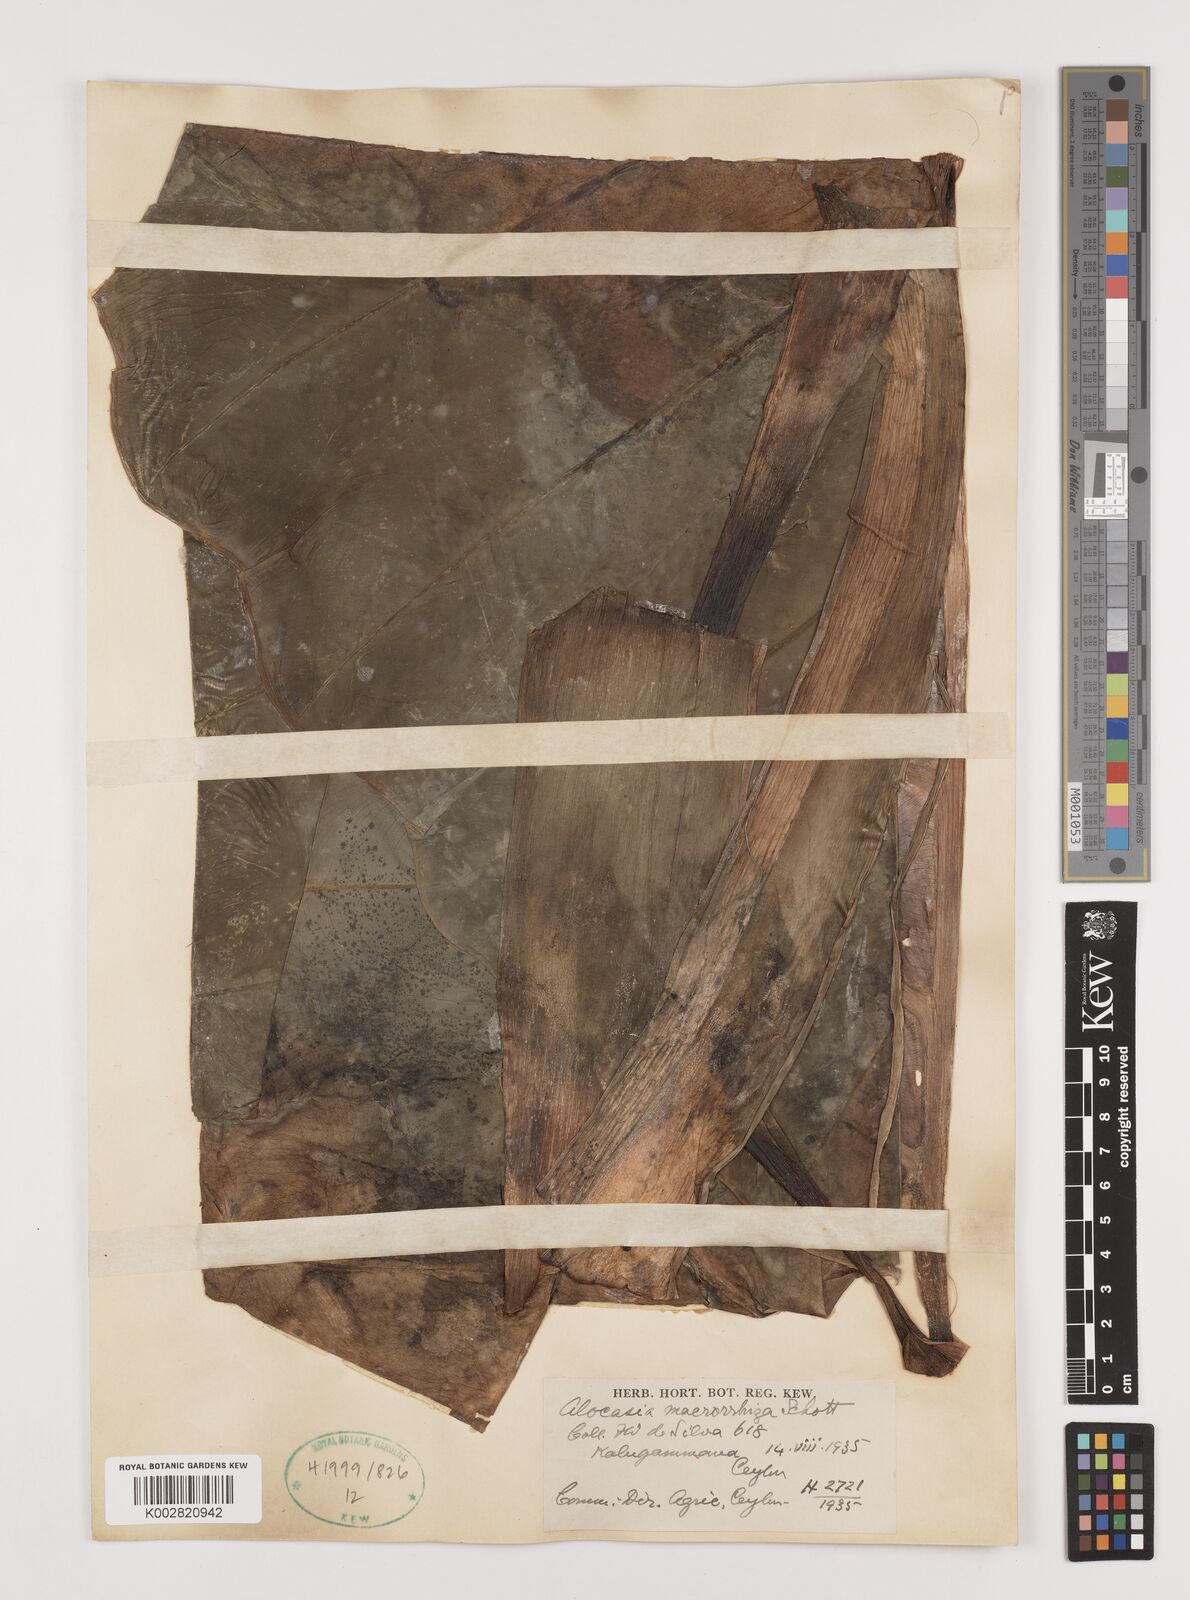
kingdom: Plantae
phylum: Tracheophyta
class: Liliopsida
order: Alismatales
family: Araceae
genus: Alocasia
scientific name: Alocasia macrorrhizos
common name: Giant taro
